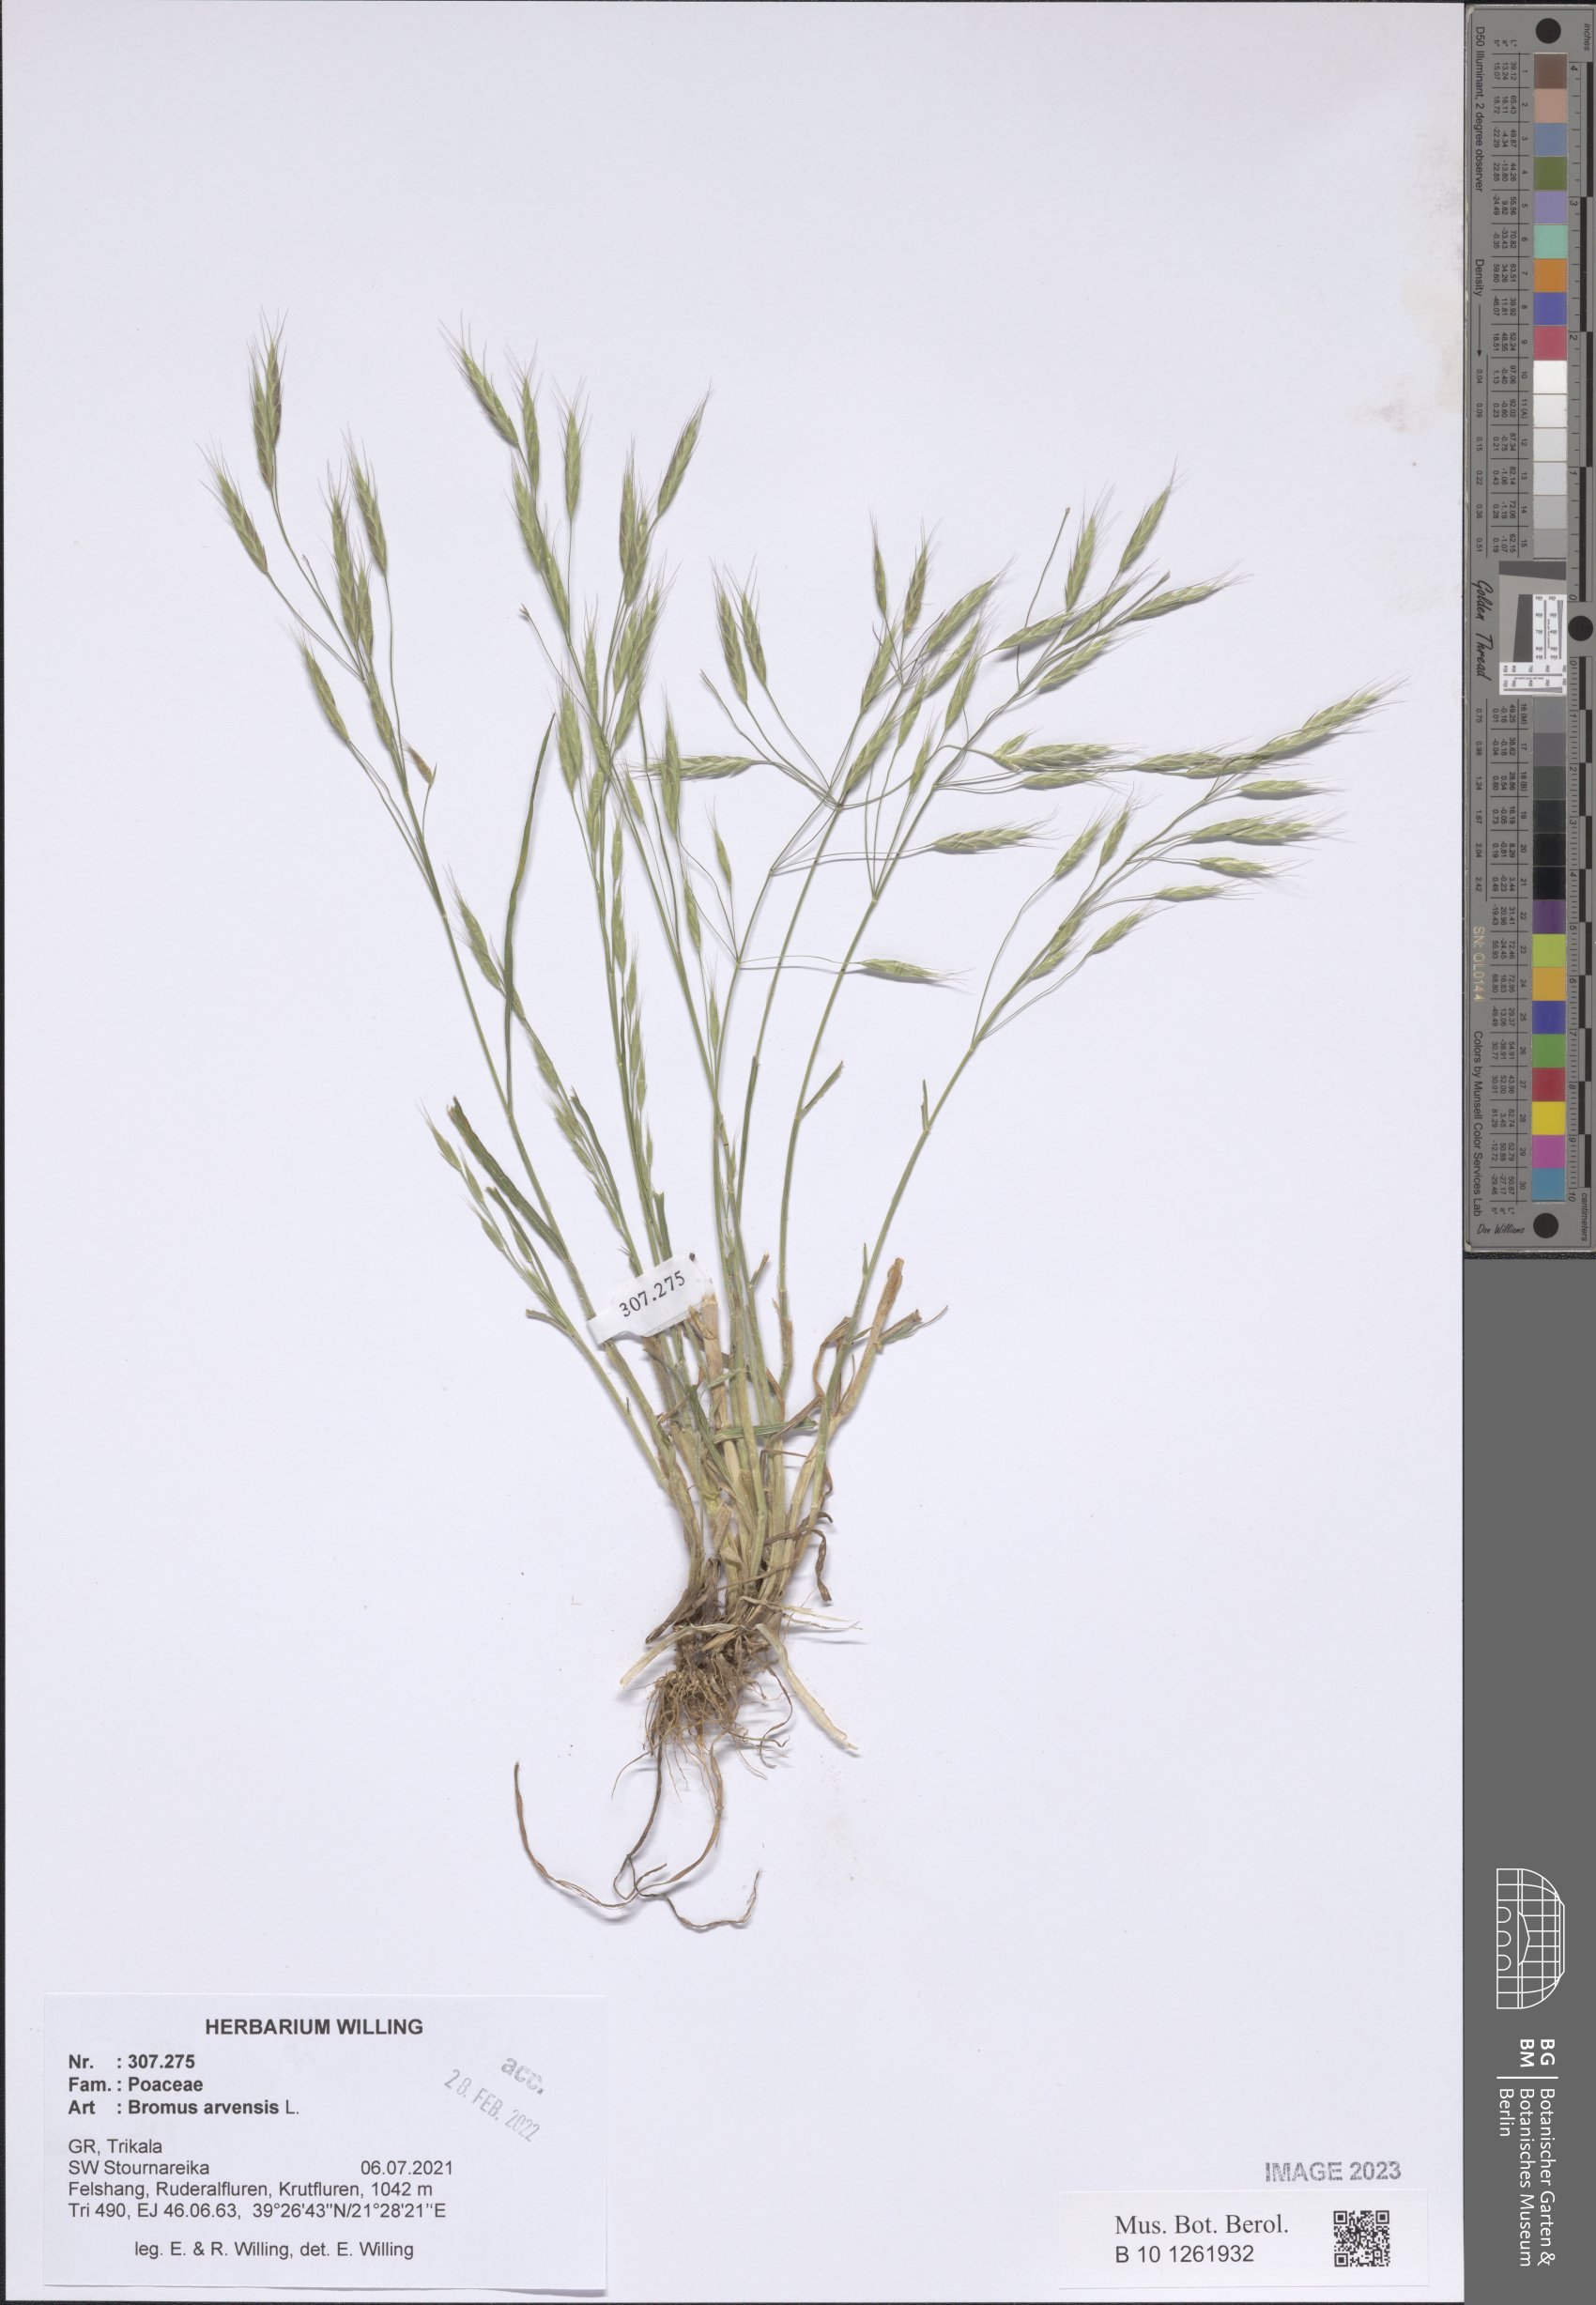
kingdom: Plantae
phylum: Tracheophyta
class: Liliopsida
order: Poales
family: Poaceae
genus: Bromus
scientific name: Bromus arvensis
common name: Field brome
